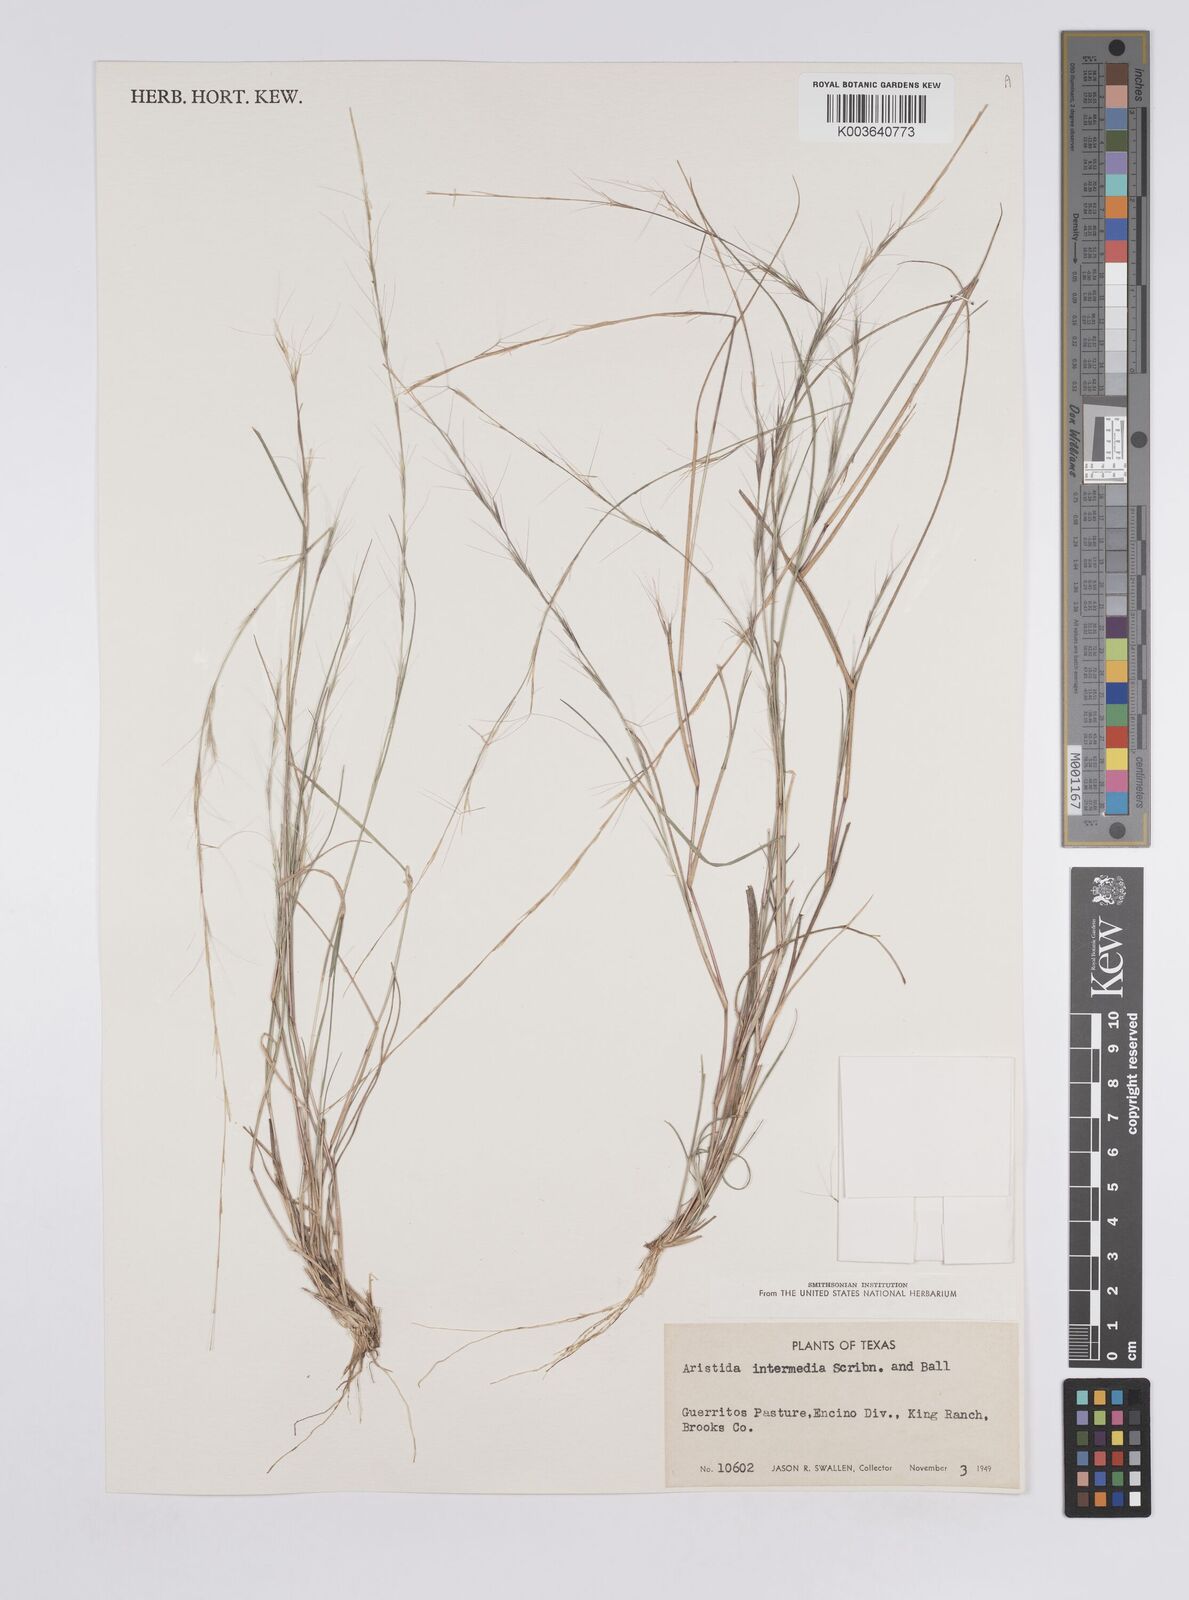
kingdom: Plantae
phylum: Tracheophyta
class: Liliopsida
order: Poales
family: Poaceae
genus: Aristida
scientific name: Aristida adscensionis
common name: Sixweeks threeawn
